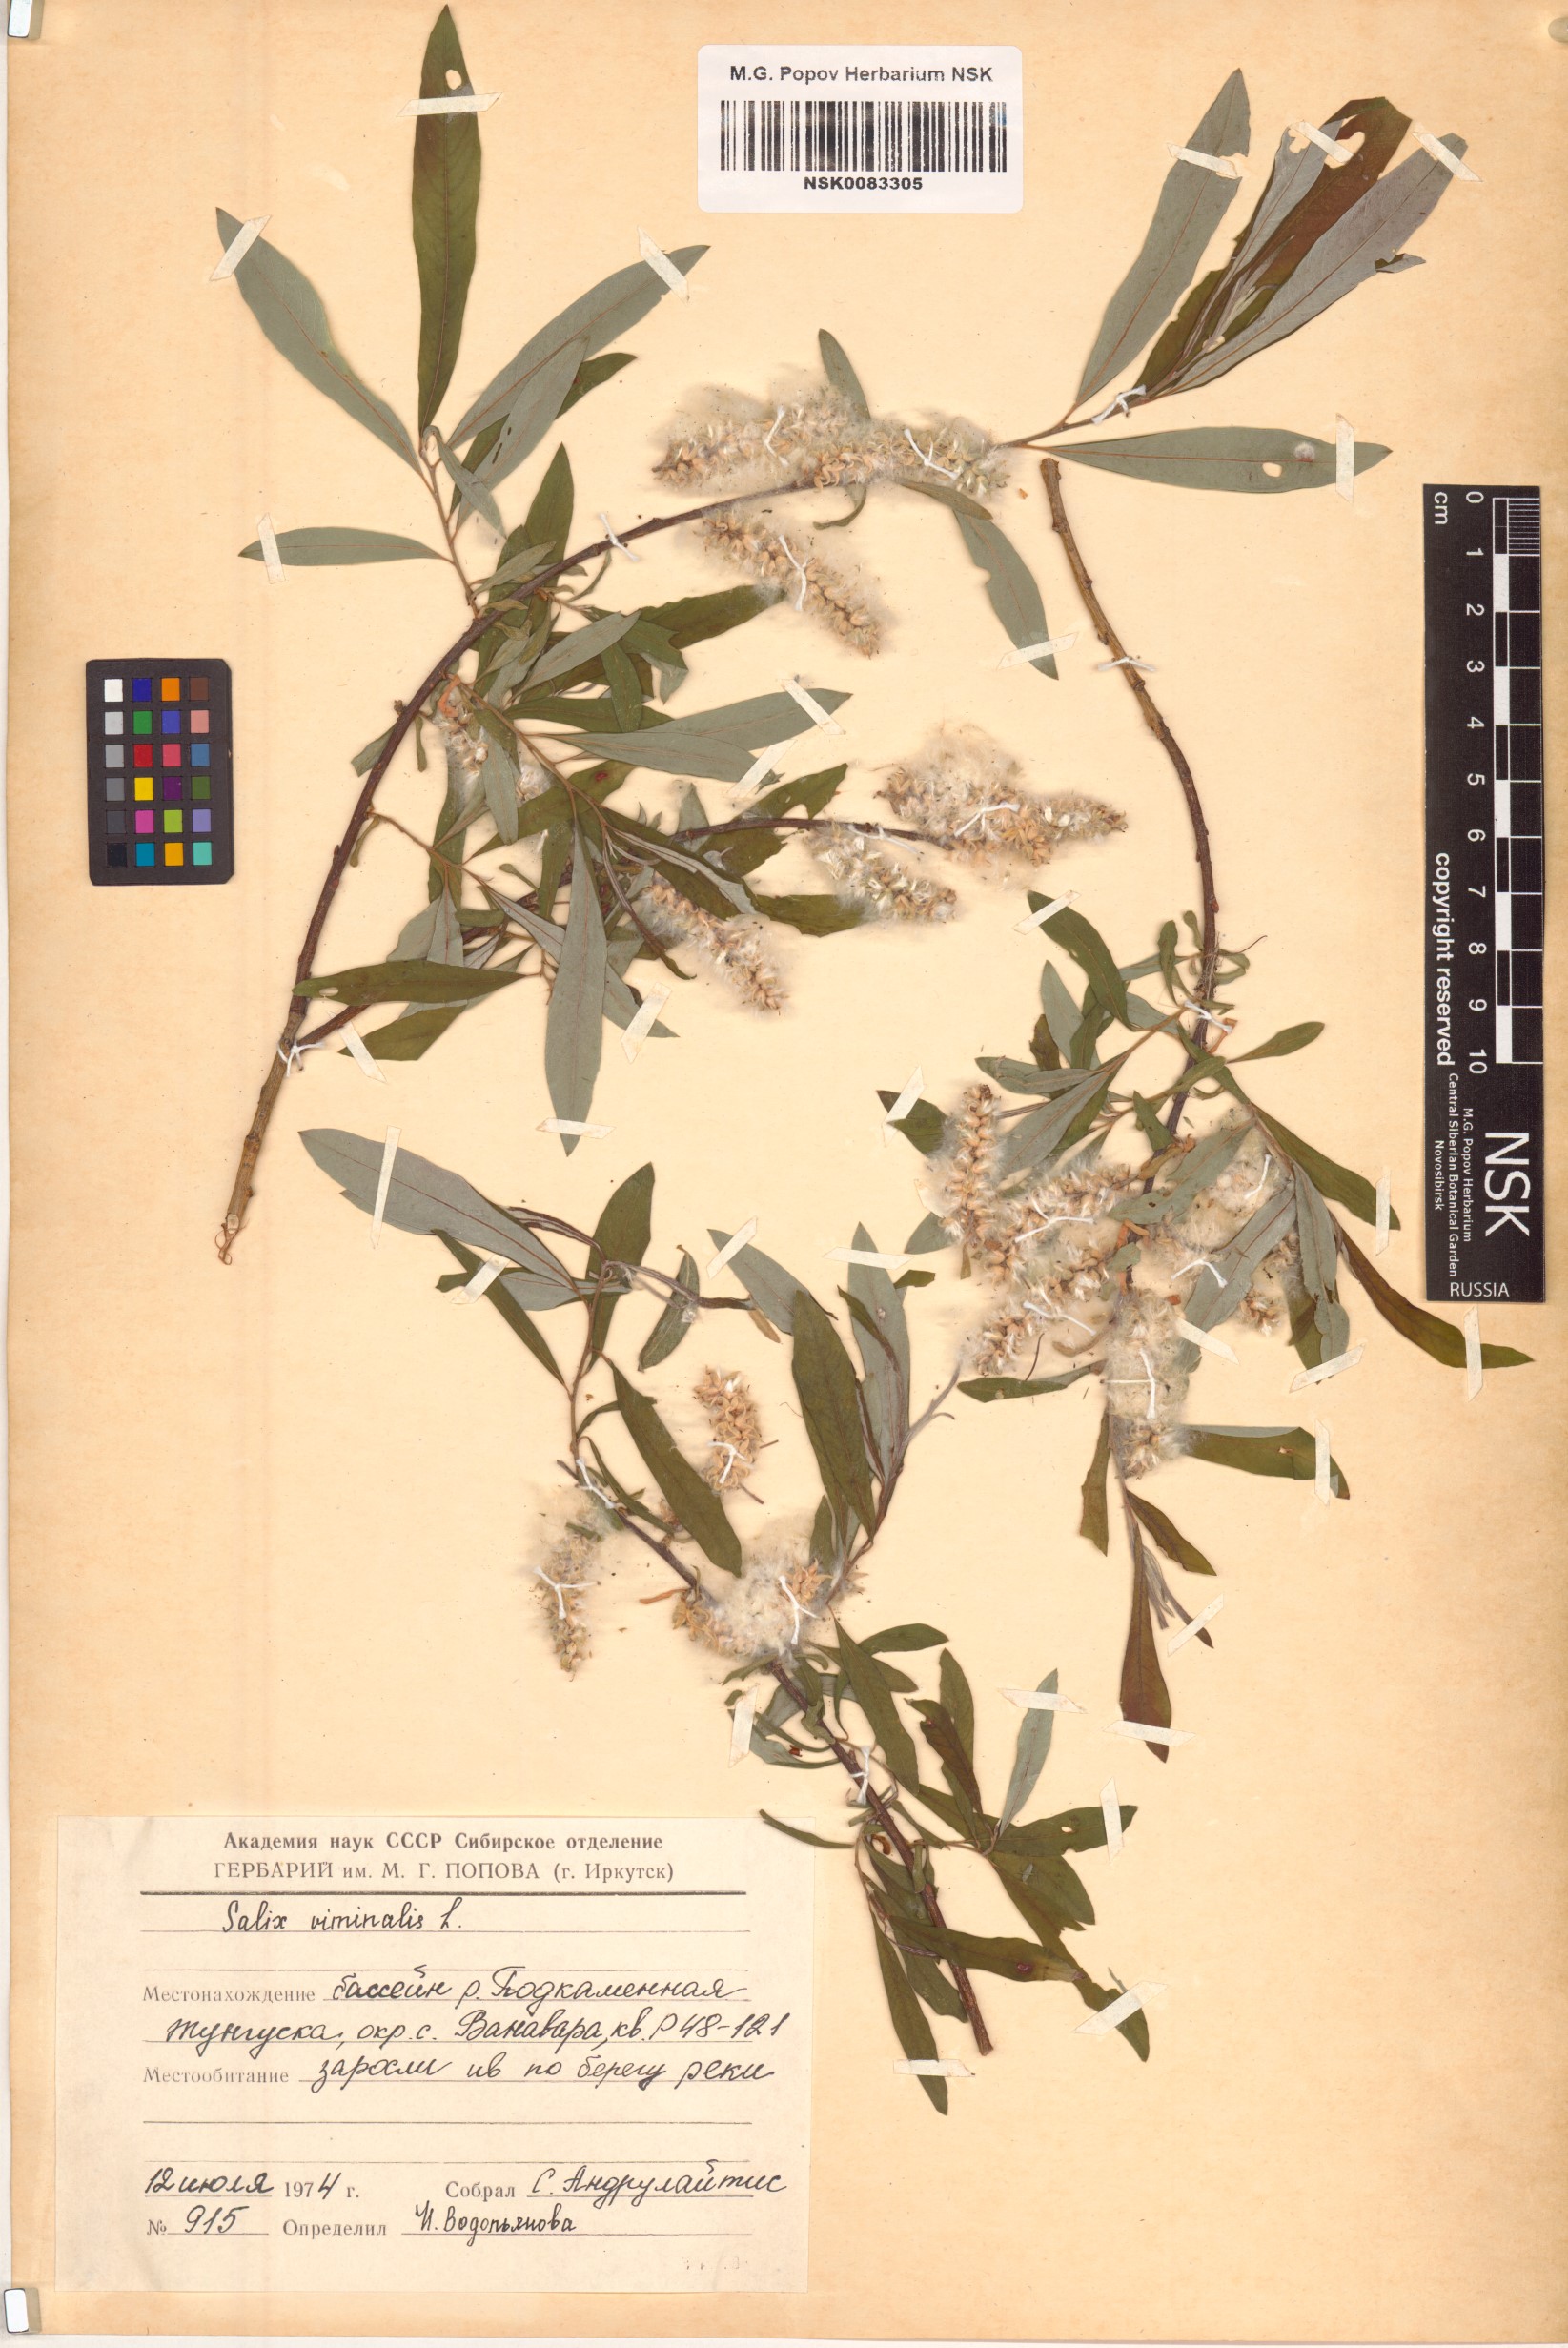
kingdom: Plantae
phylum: Tracheophyta
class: Magnoliopsida
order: Malpighiales
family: Salicaceae
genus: Salix
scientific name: Salix viminalis
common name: Osier
